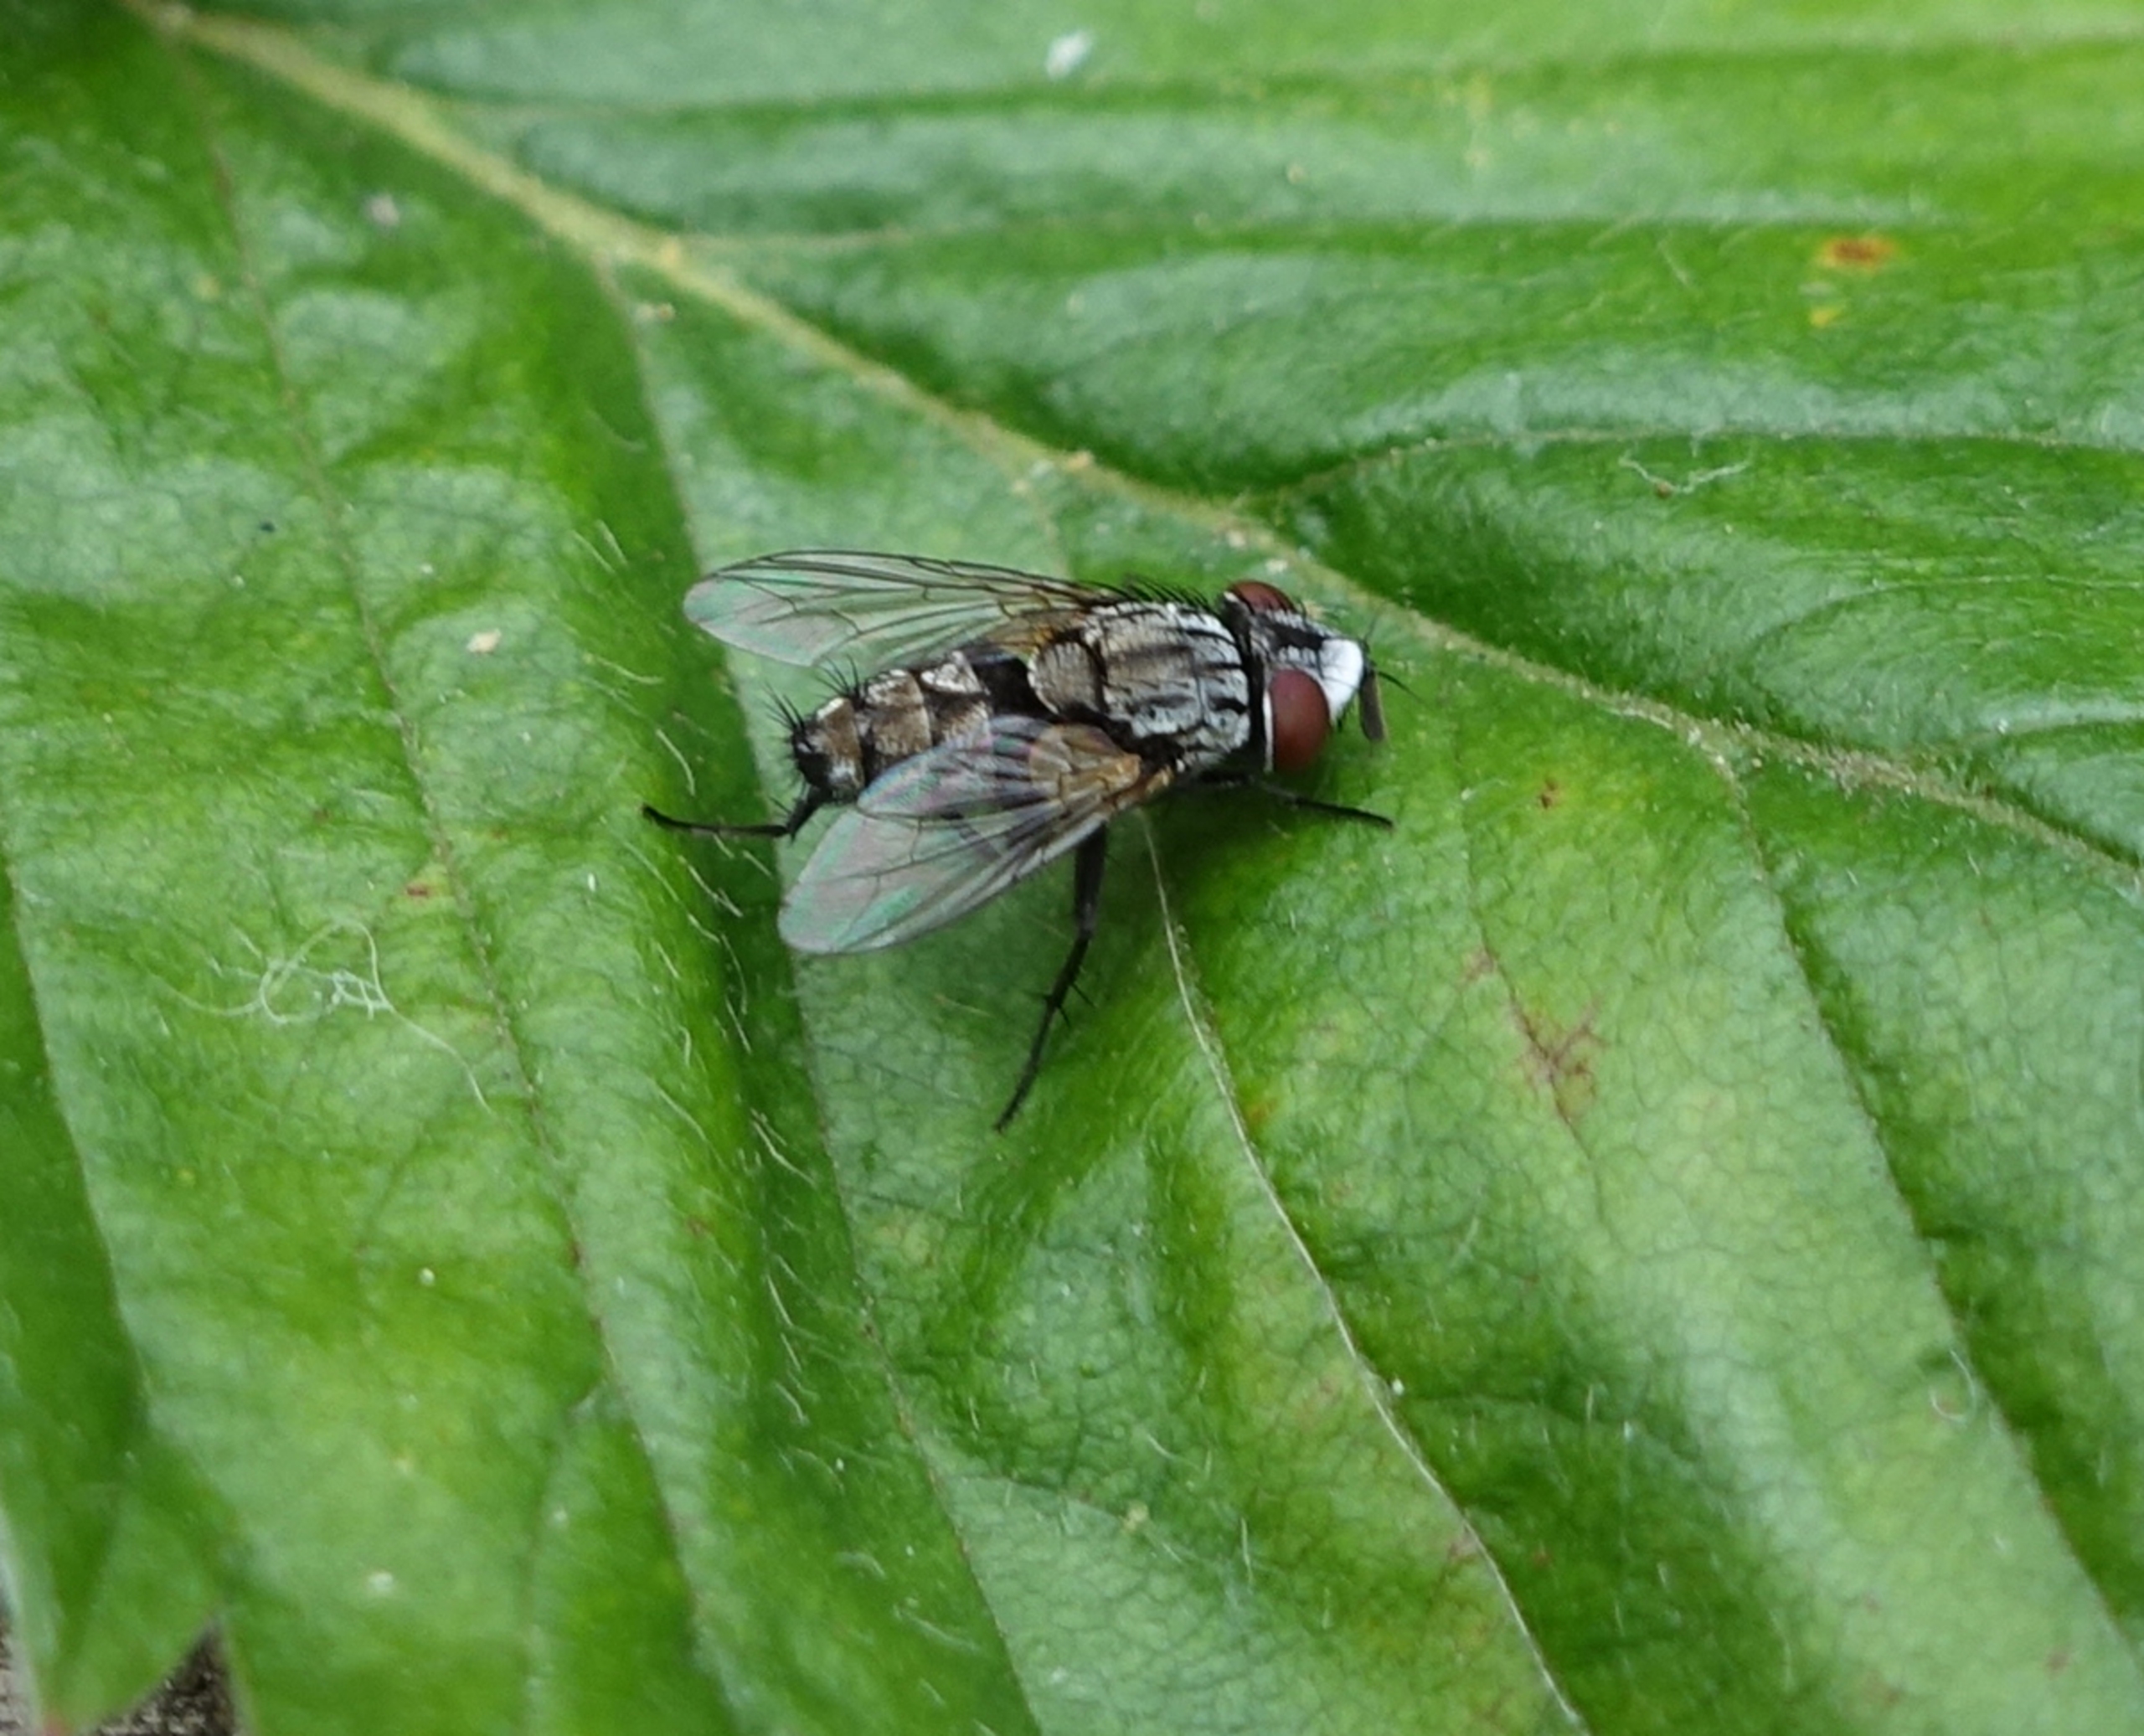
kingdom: Animalia
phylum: Arthropoda
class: Insecta
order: Diptera
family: Sarcophagidae
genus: Metopia
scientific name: Metopia argyrocephala
